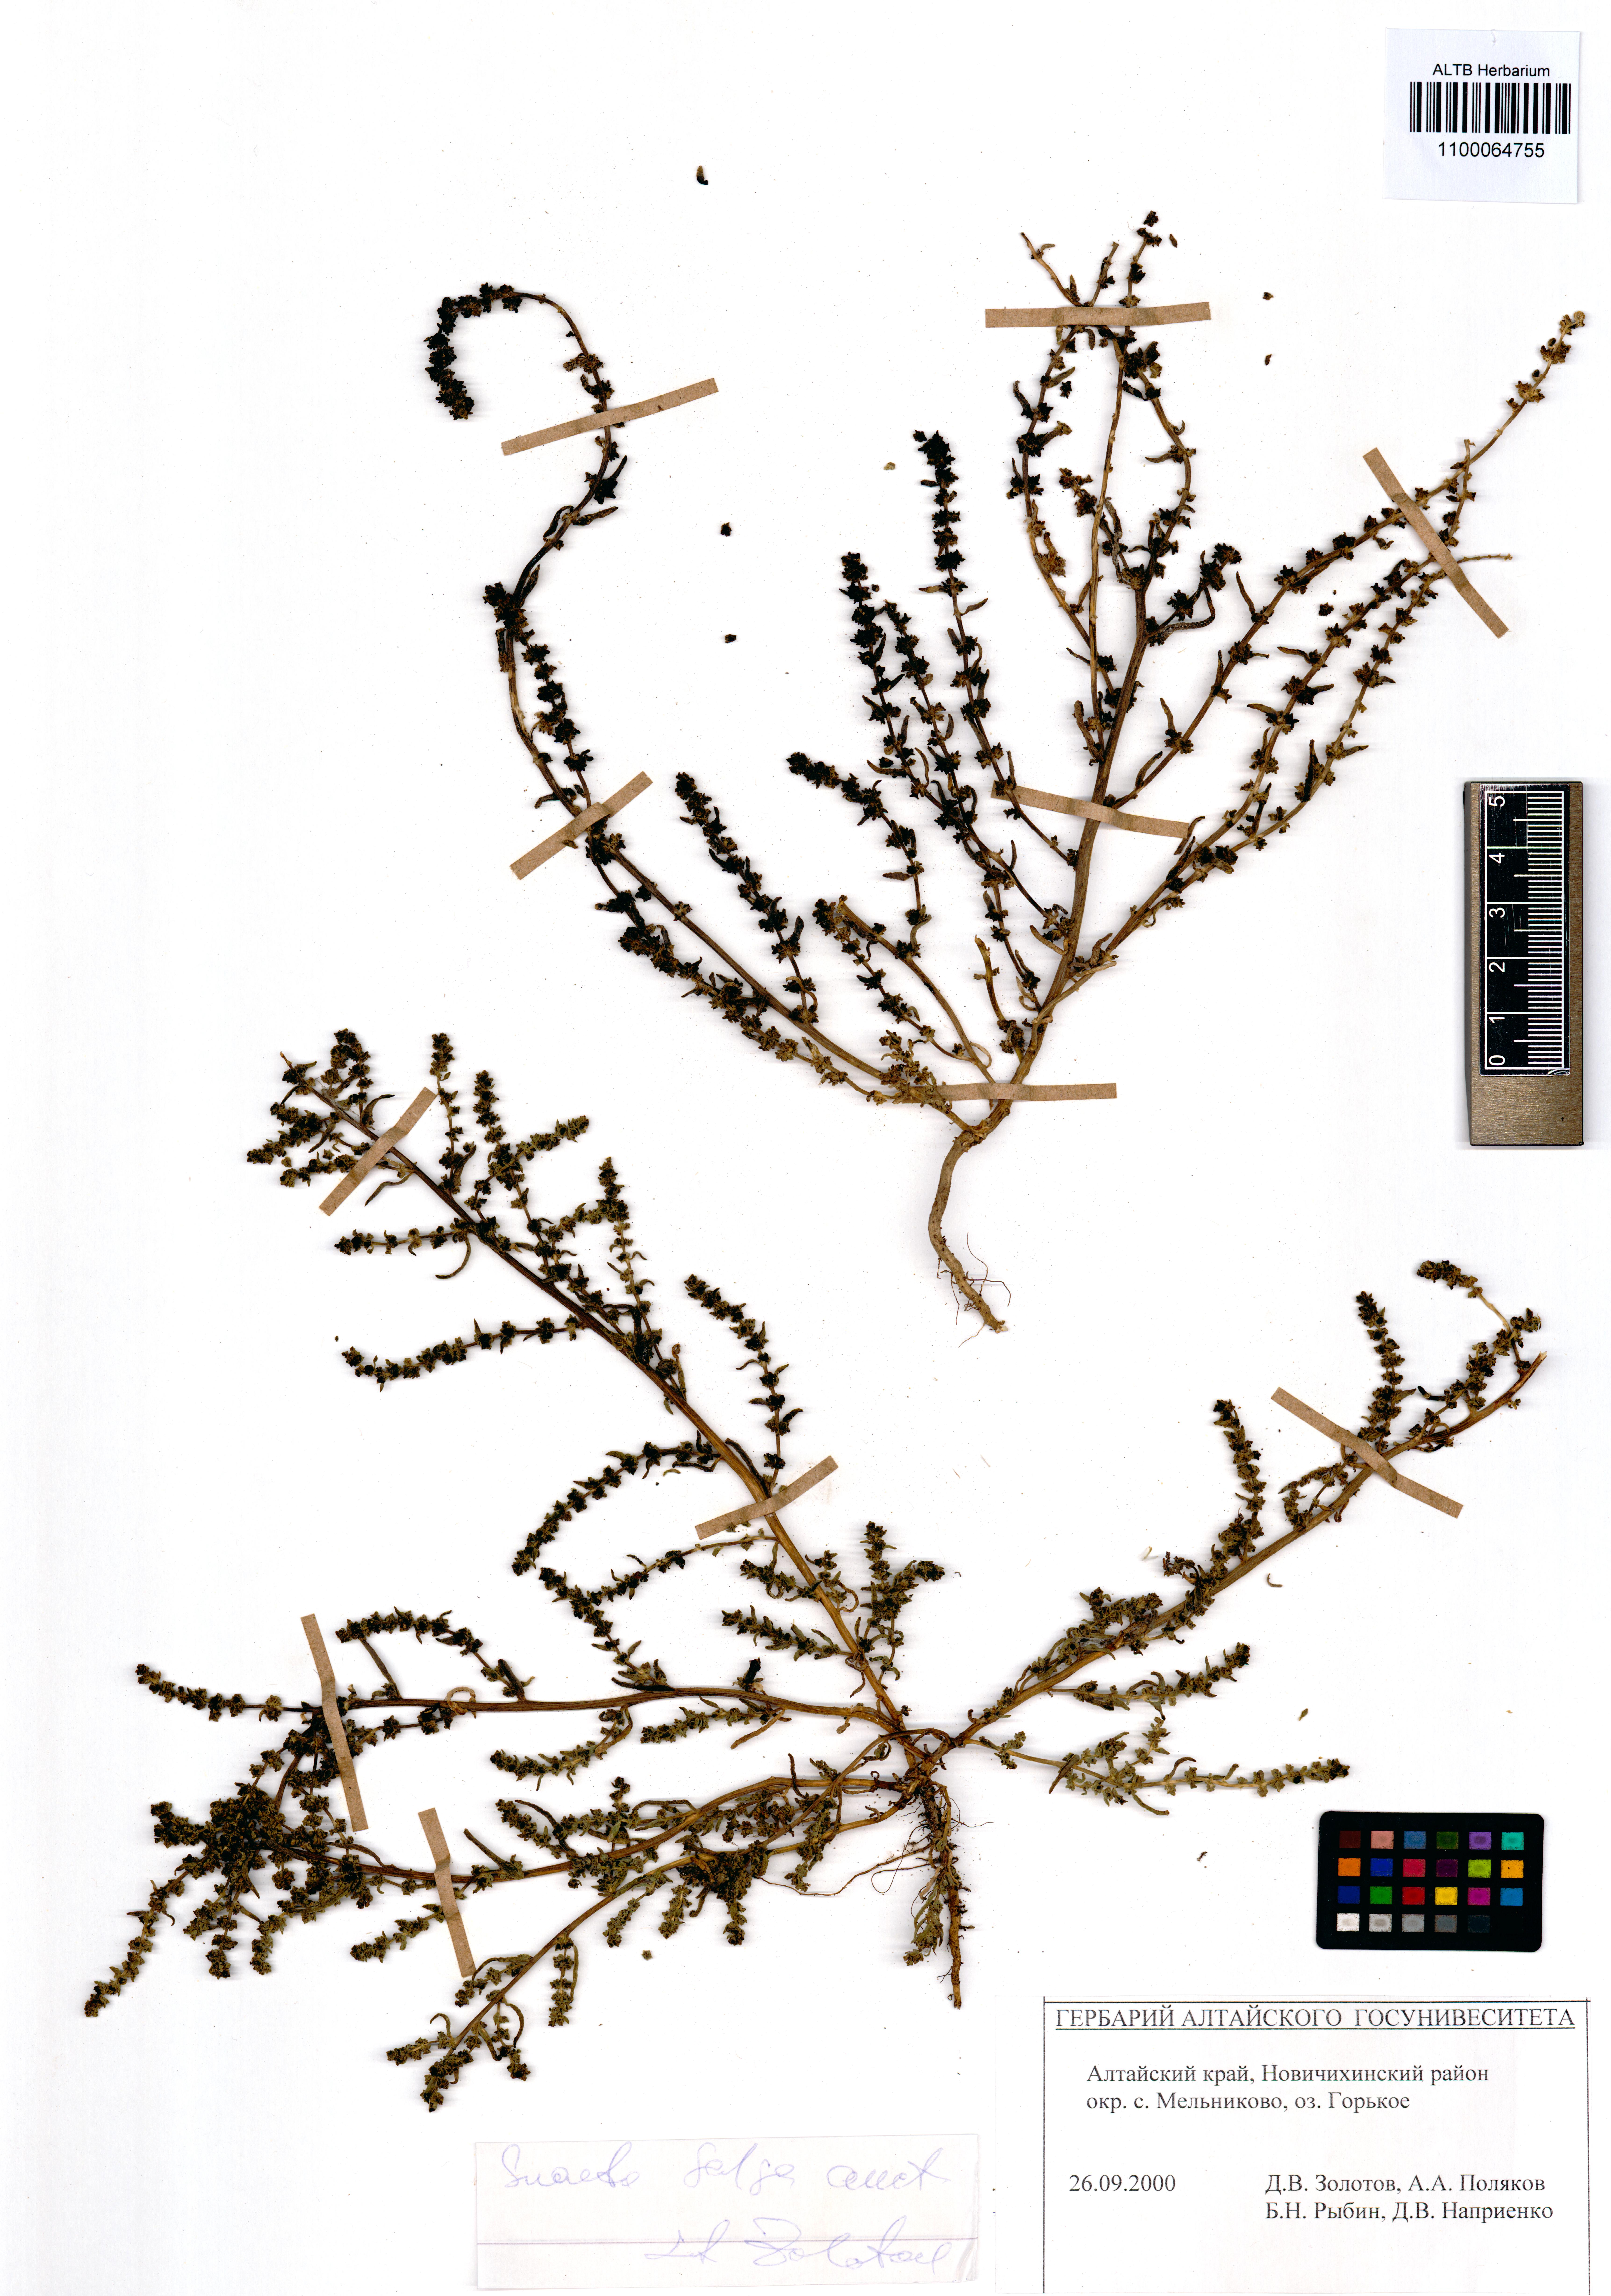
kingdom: Plantae
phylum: Tracheophyta
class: Magnoliopsida
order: Caryophyllales
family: Amaranthaceae
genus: Suaeda
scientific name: Suaeda salsa
